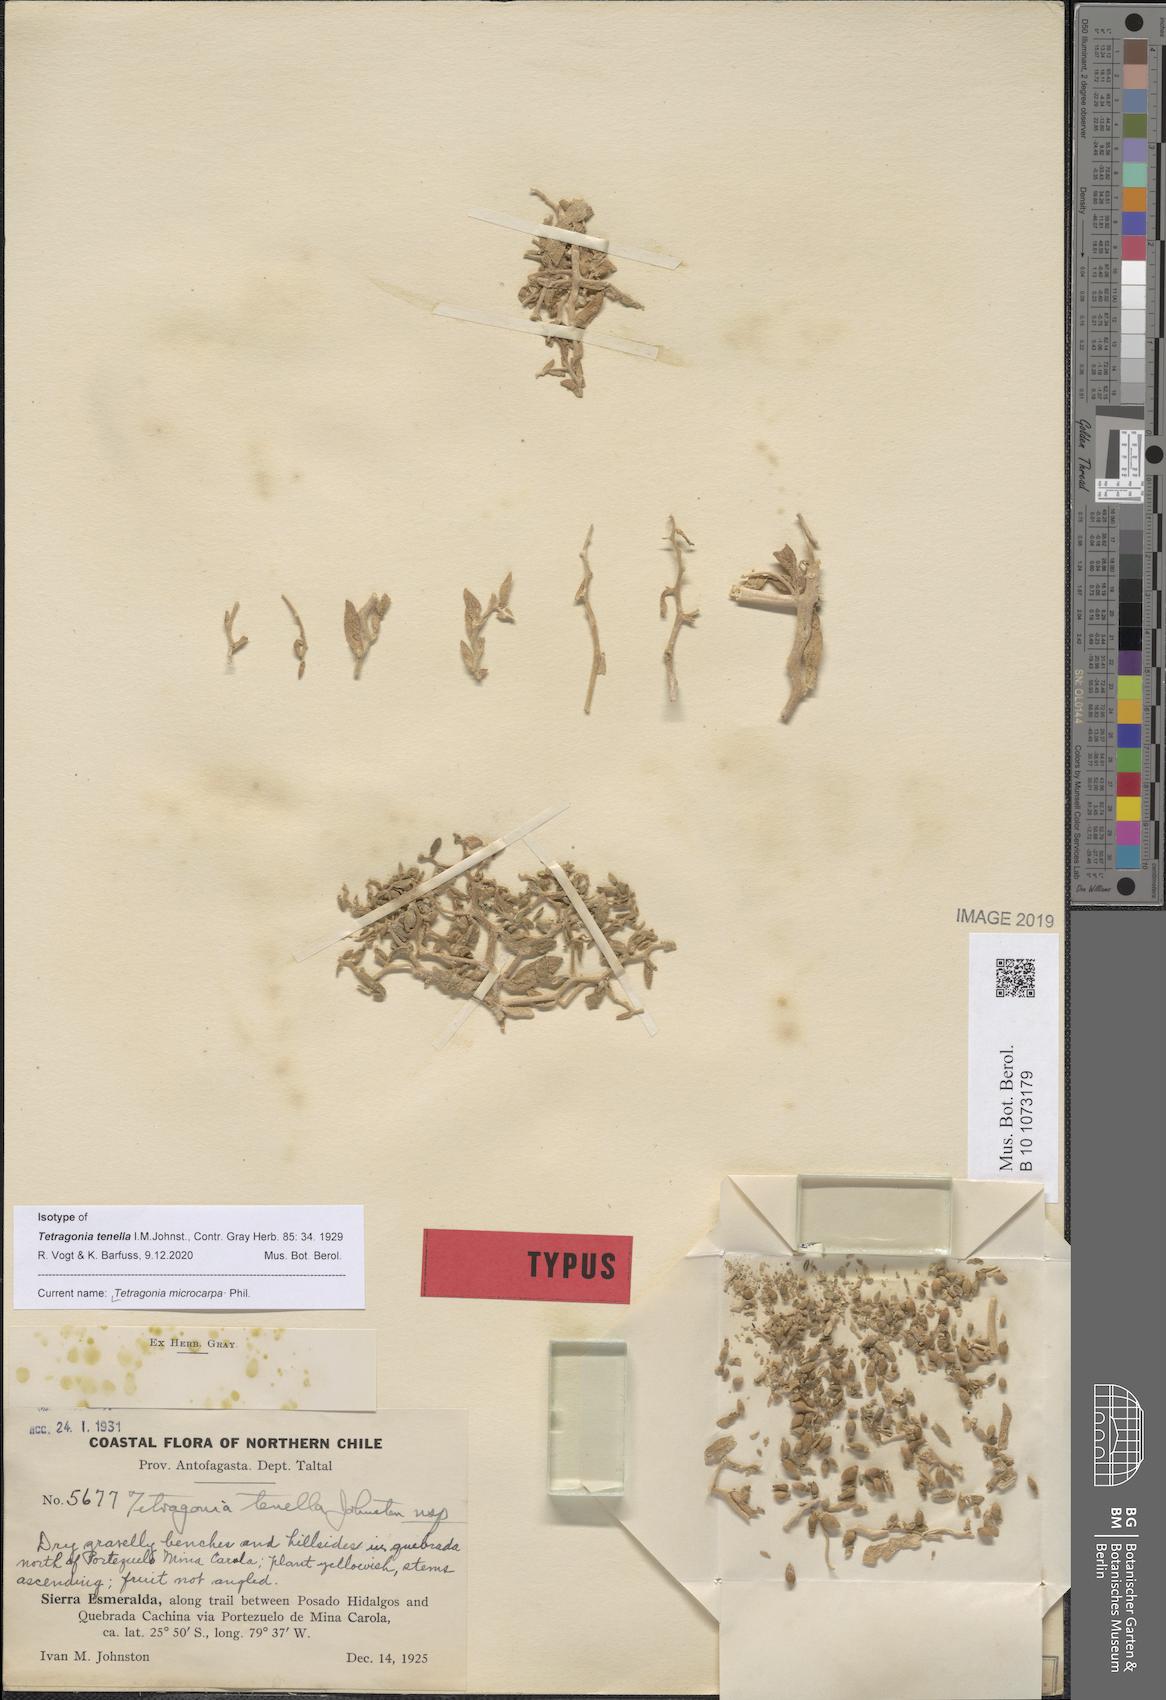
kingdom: Plantae
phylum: Tracheophyta
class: Magnoliopsida
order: Caryophyllales
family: Aizoaceae
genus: Tetragonia
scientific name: Tetragonia microcarpa
